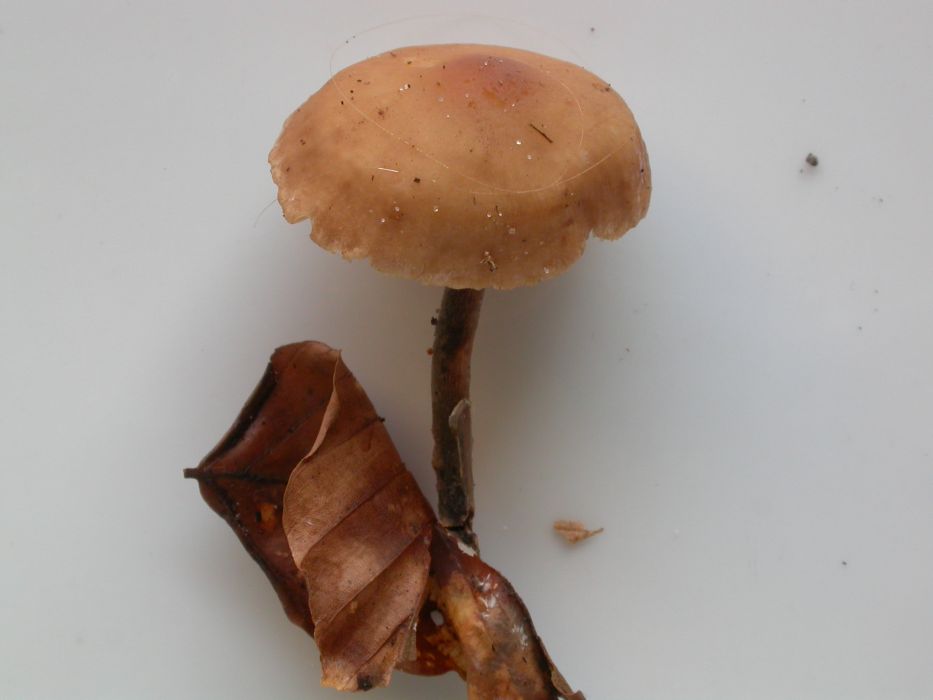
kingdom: Fungi
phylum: Basidiomycota
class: Agaricomycetes
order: Agaricales
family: Omphalotaceae
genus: Gymnopus
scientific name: Gymnopus fuscopurpureus
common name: purpurbrun fladhat
